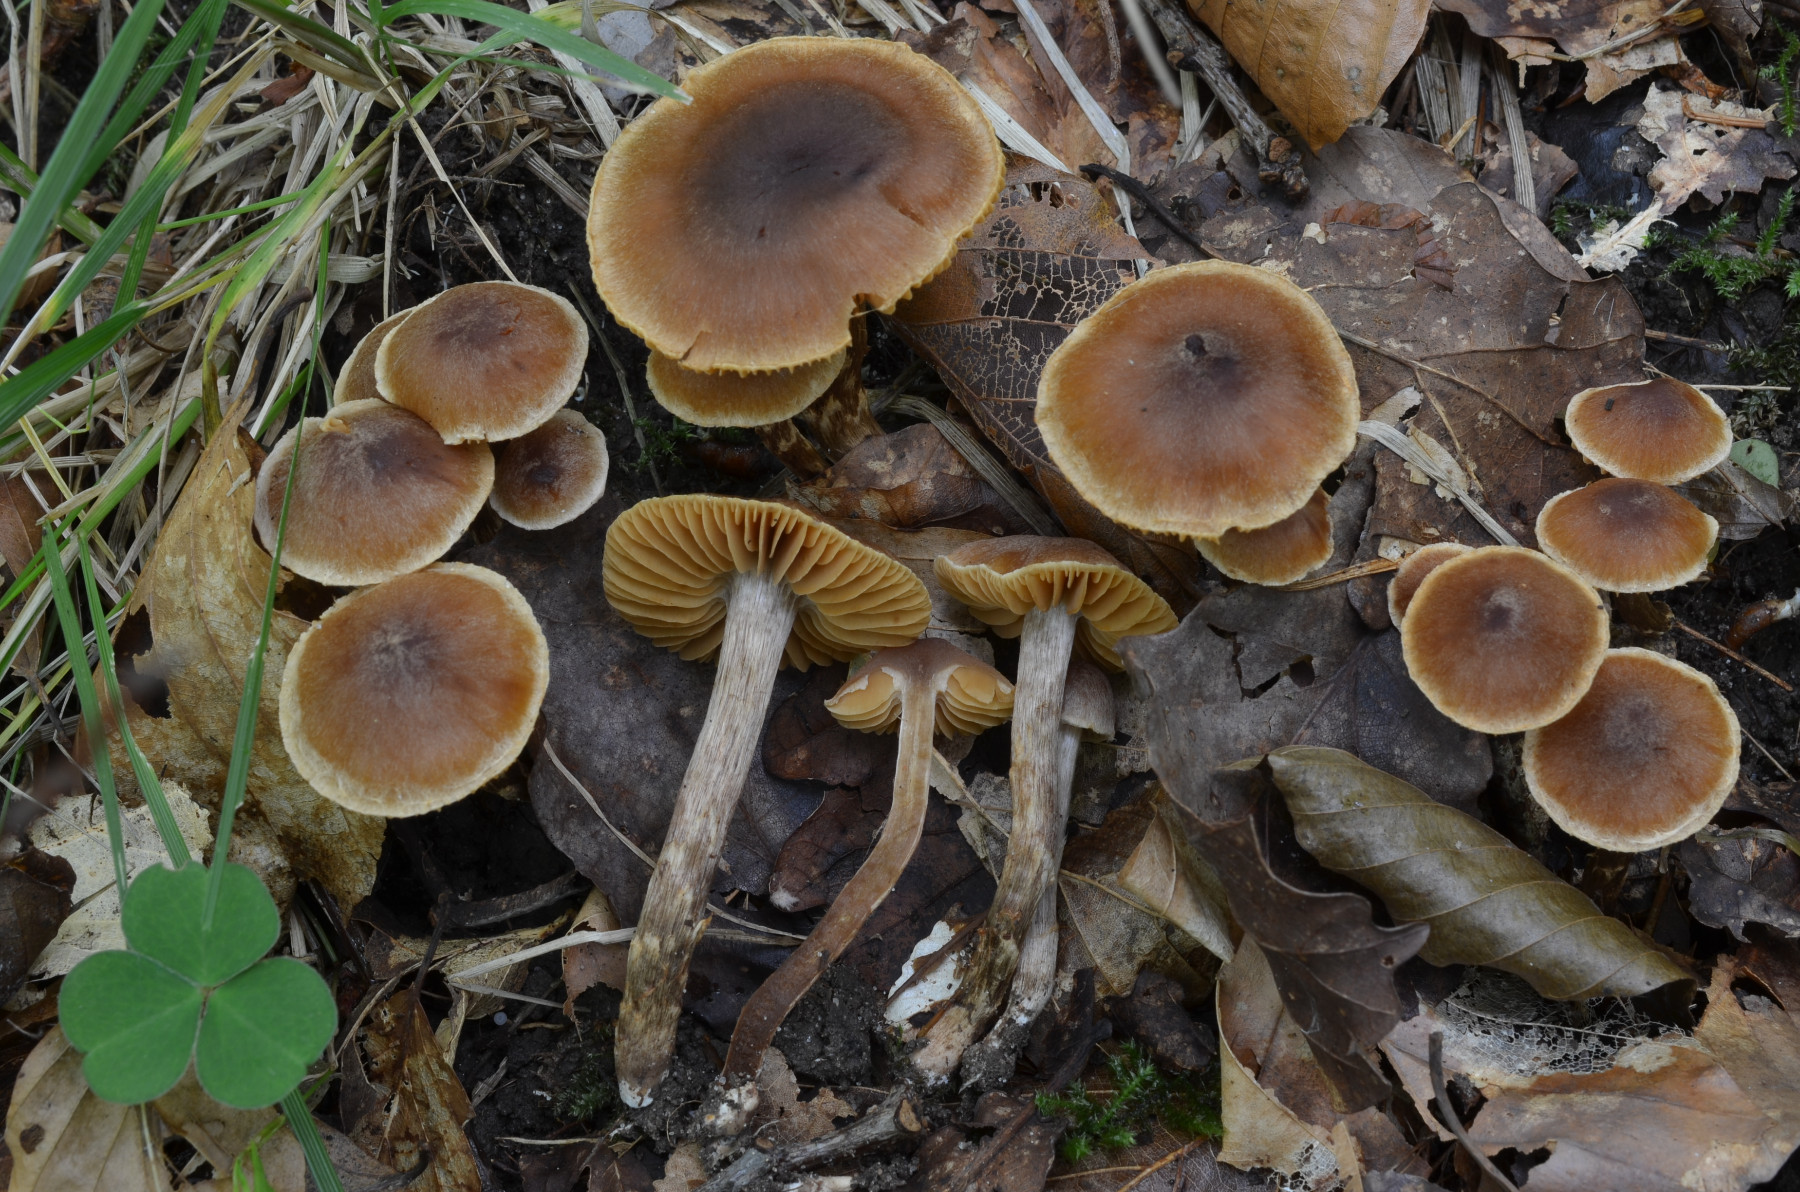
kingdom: Fungi
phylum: Basidiomycota
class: Agaricomycetes
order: Agaricales
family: Cortinariaceae
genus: Cortinarius
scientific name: Cortinarius fuscogracilescens
